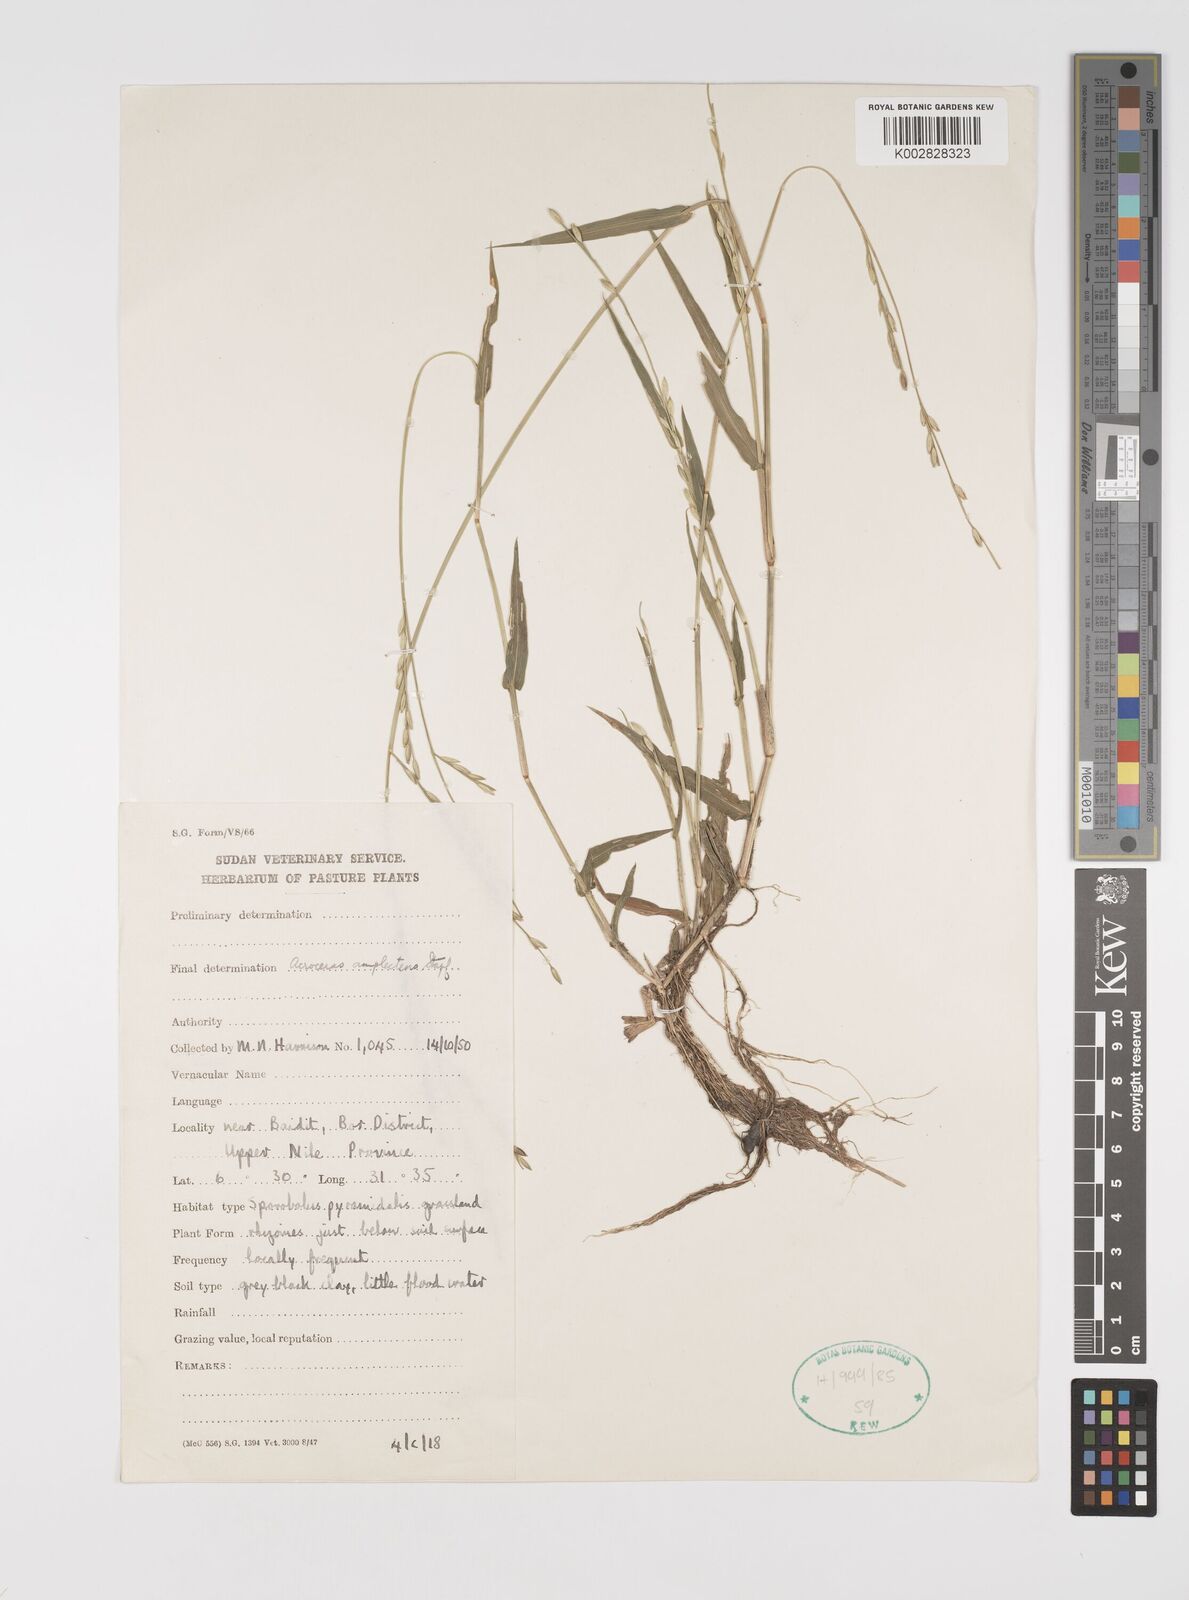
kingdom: Plantae
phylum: Tracheophyta
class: Liliopsida
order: Poales
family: Poaceae
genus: Acroceras
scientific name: Acroceras amplectens
